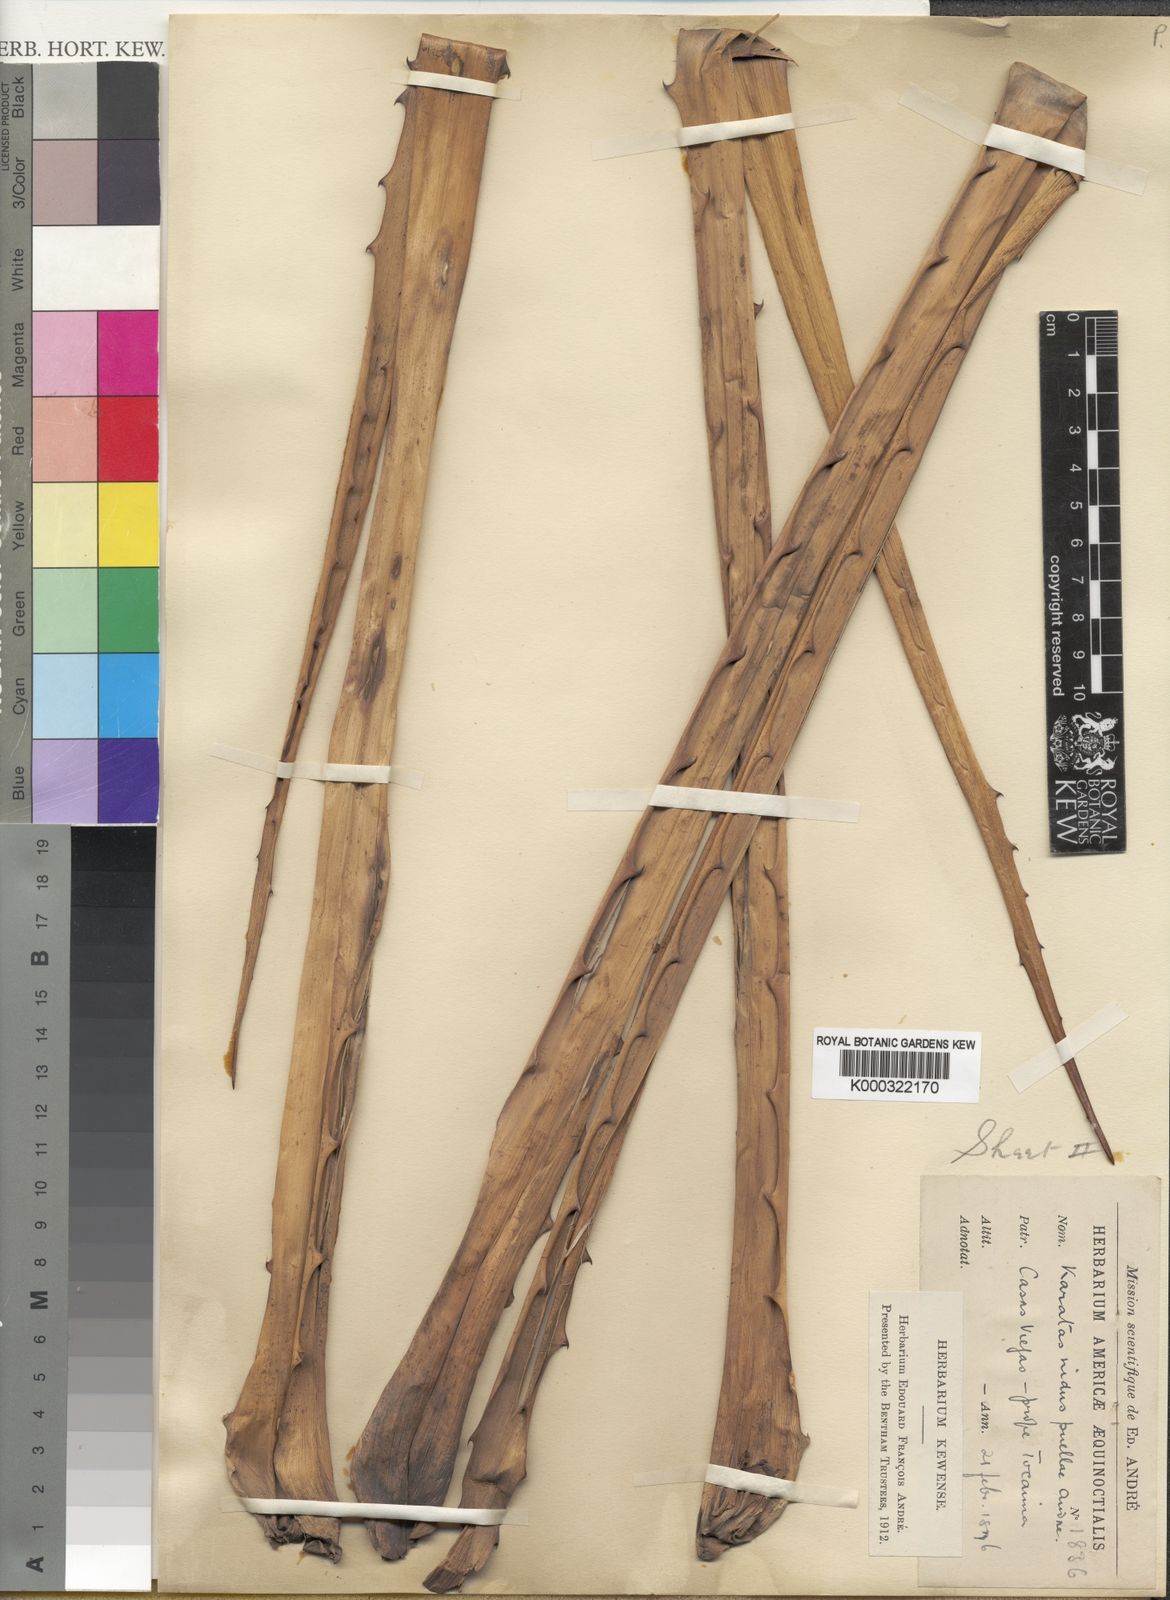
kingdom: Plantae
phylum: Tracheophyta
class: Liliopsida
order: Poales
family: Bromeliaceae
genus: Bromelia
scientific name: Bromelia nidus-puellae
